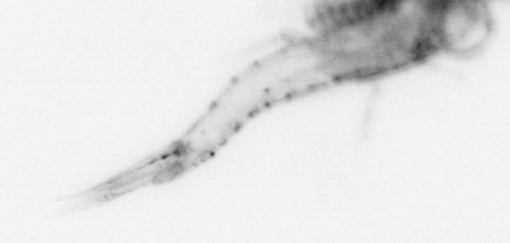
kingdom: Animalia
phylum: Arthropoda
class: Malacostraca
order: Decapoda
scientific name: Decapoda
